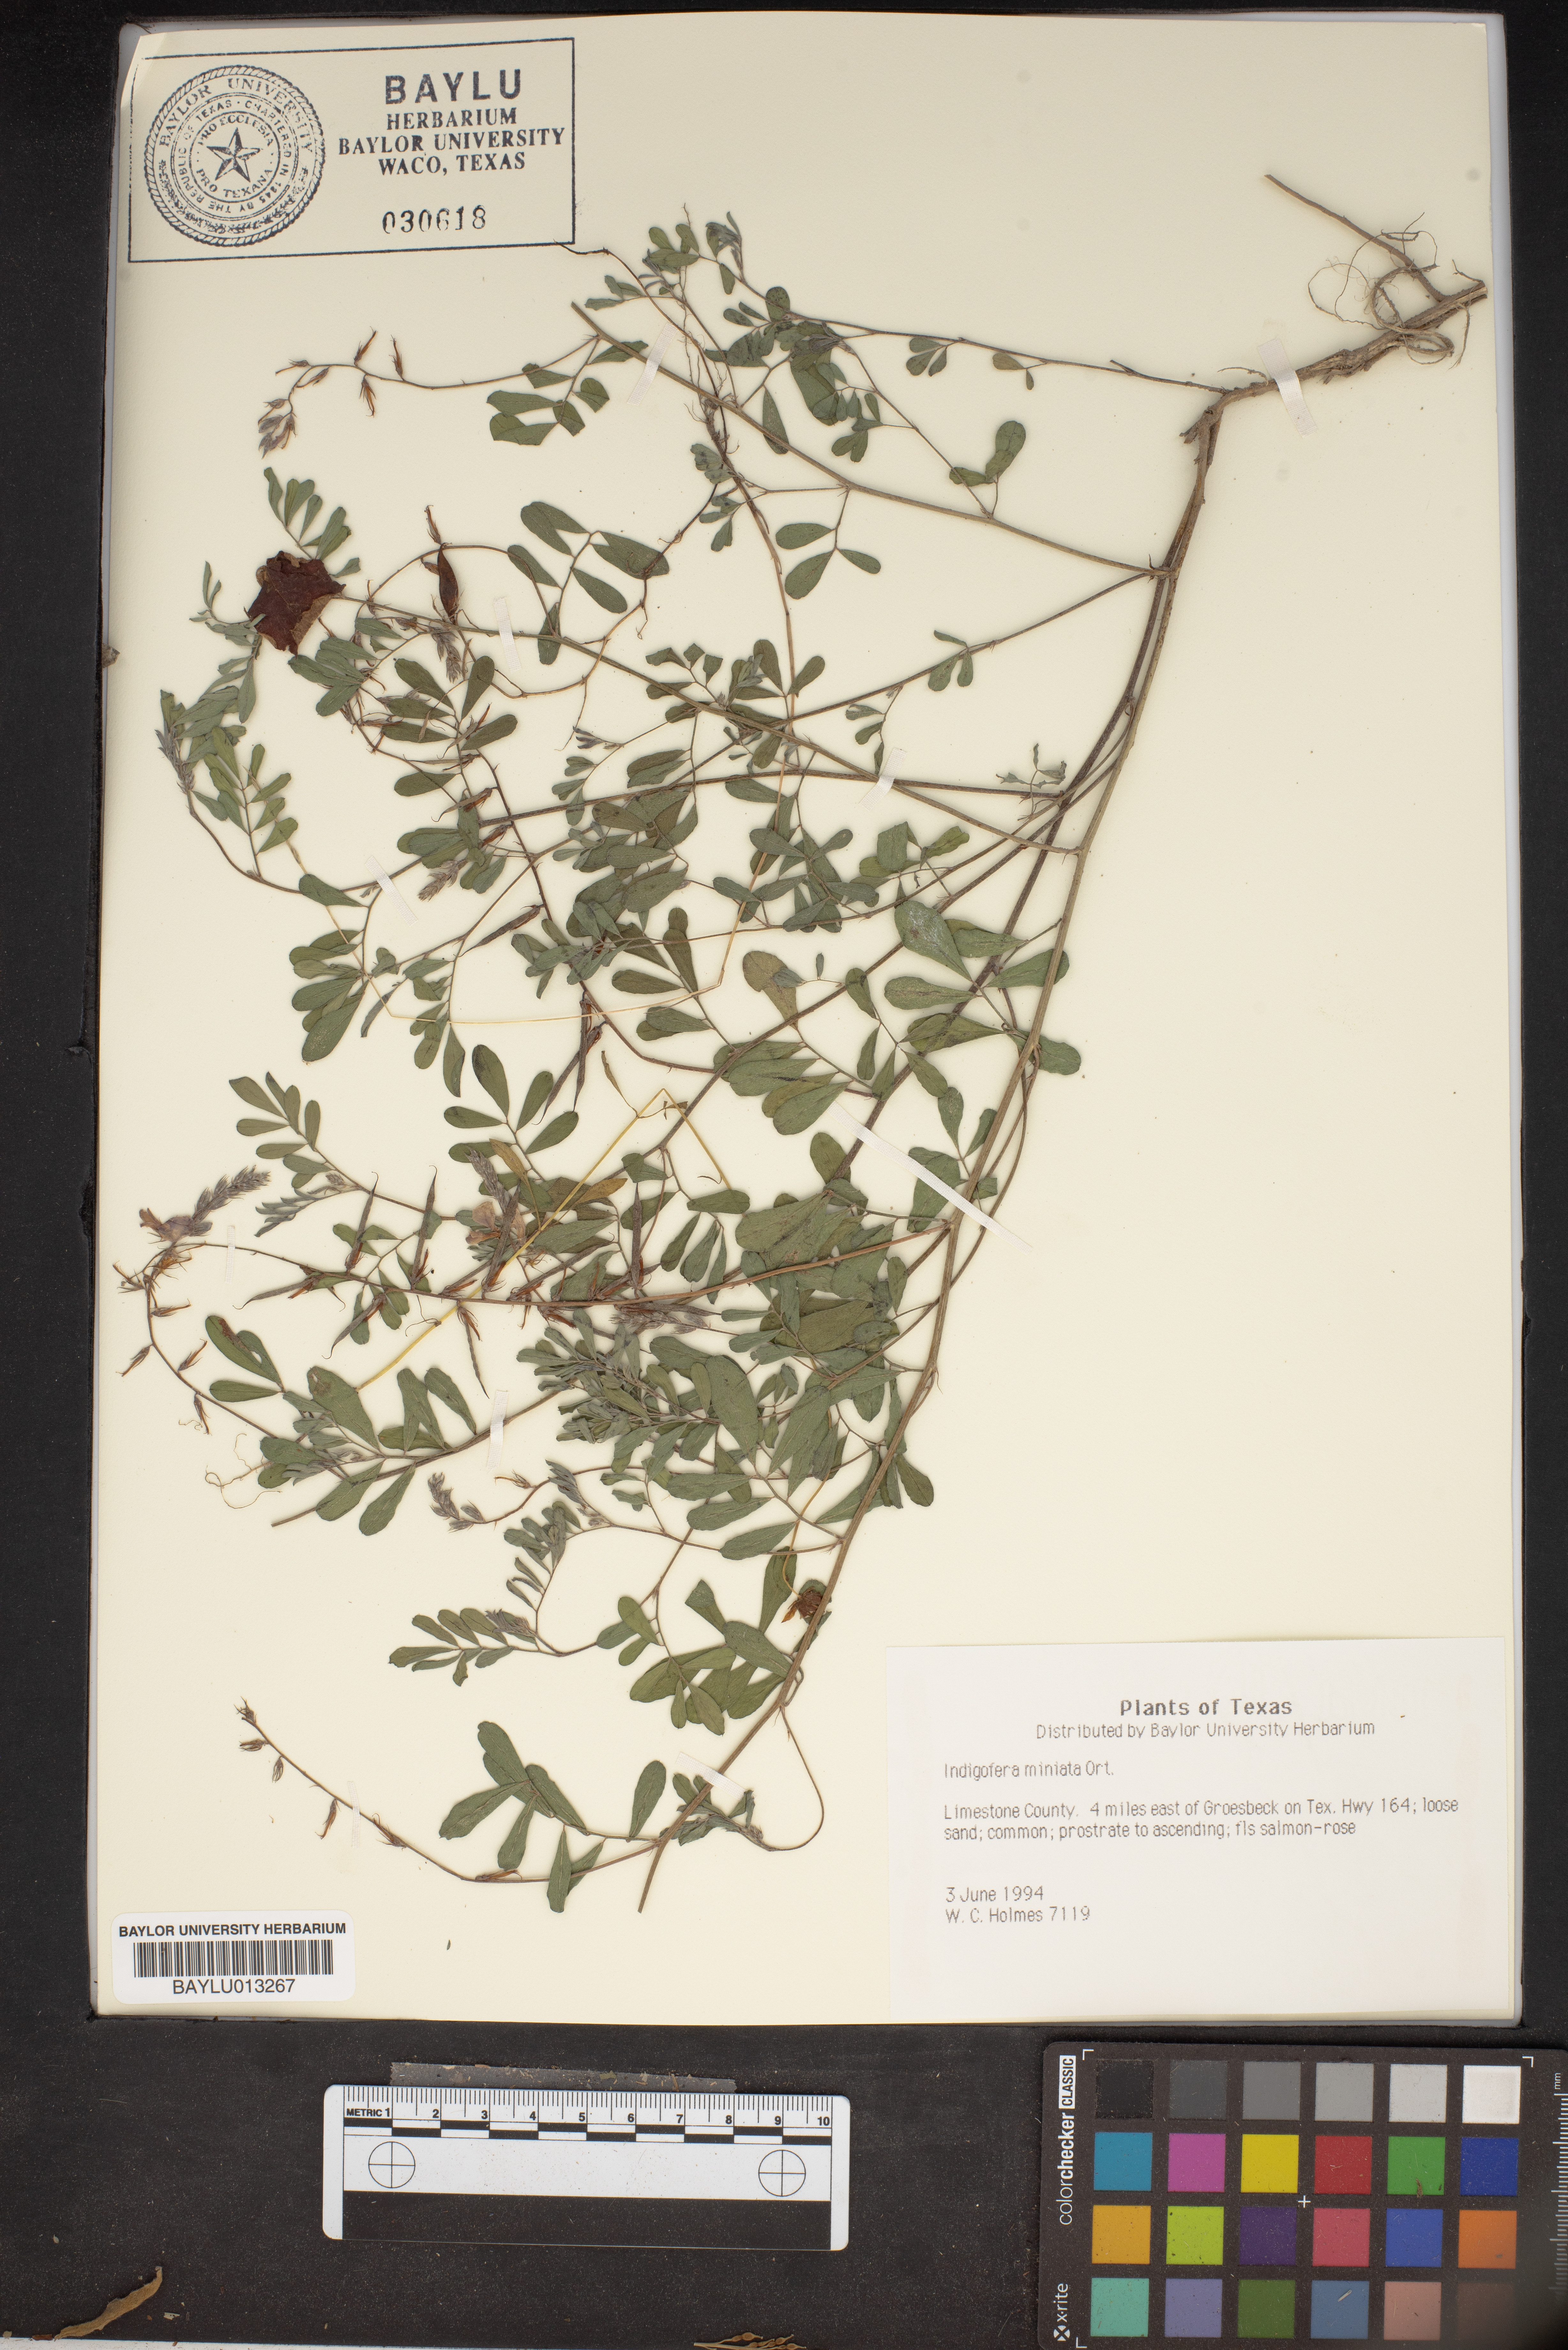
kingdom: Plantae
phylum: Tracheophyta
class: Magnoliopsida
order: Fabales
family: Fabaceae
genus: Indigofera
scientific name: Indigofera miniata
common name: Coast indigo
